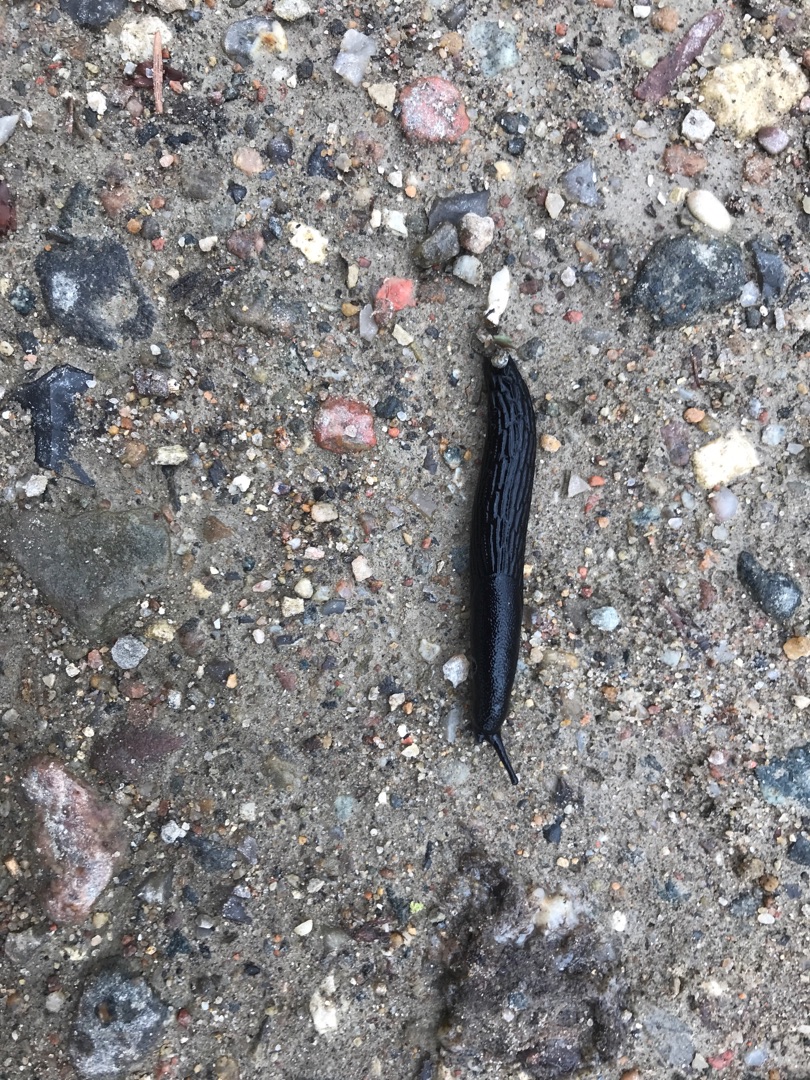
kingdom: Animalia
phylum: Mollusca
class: Gastropoda
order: Stylommatophora
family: Arionidae
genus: Arion
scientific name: Arion ater
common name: Sort skovsnegl
